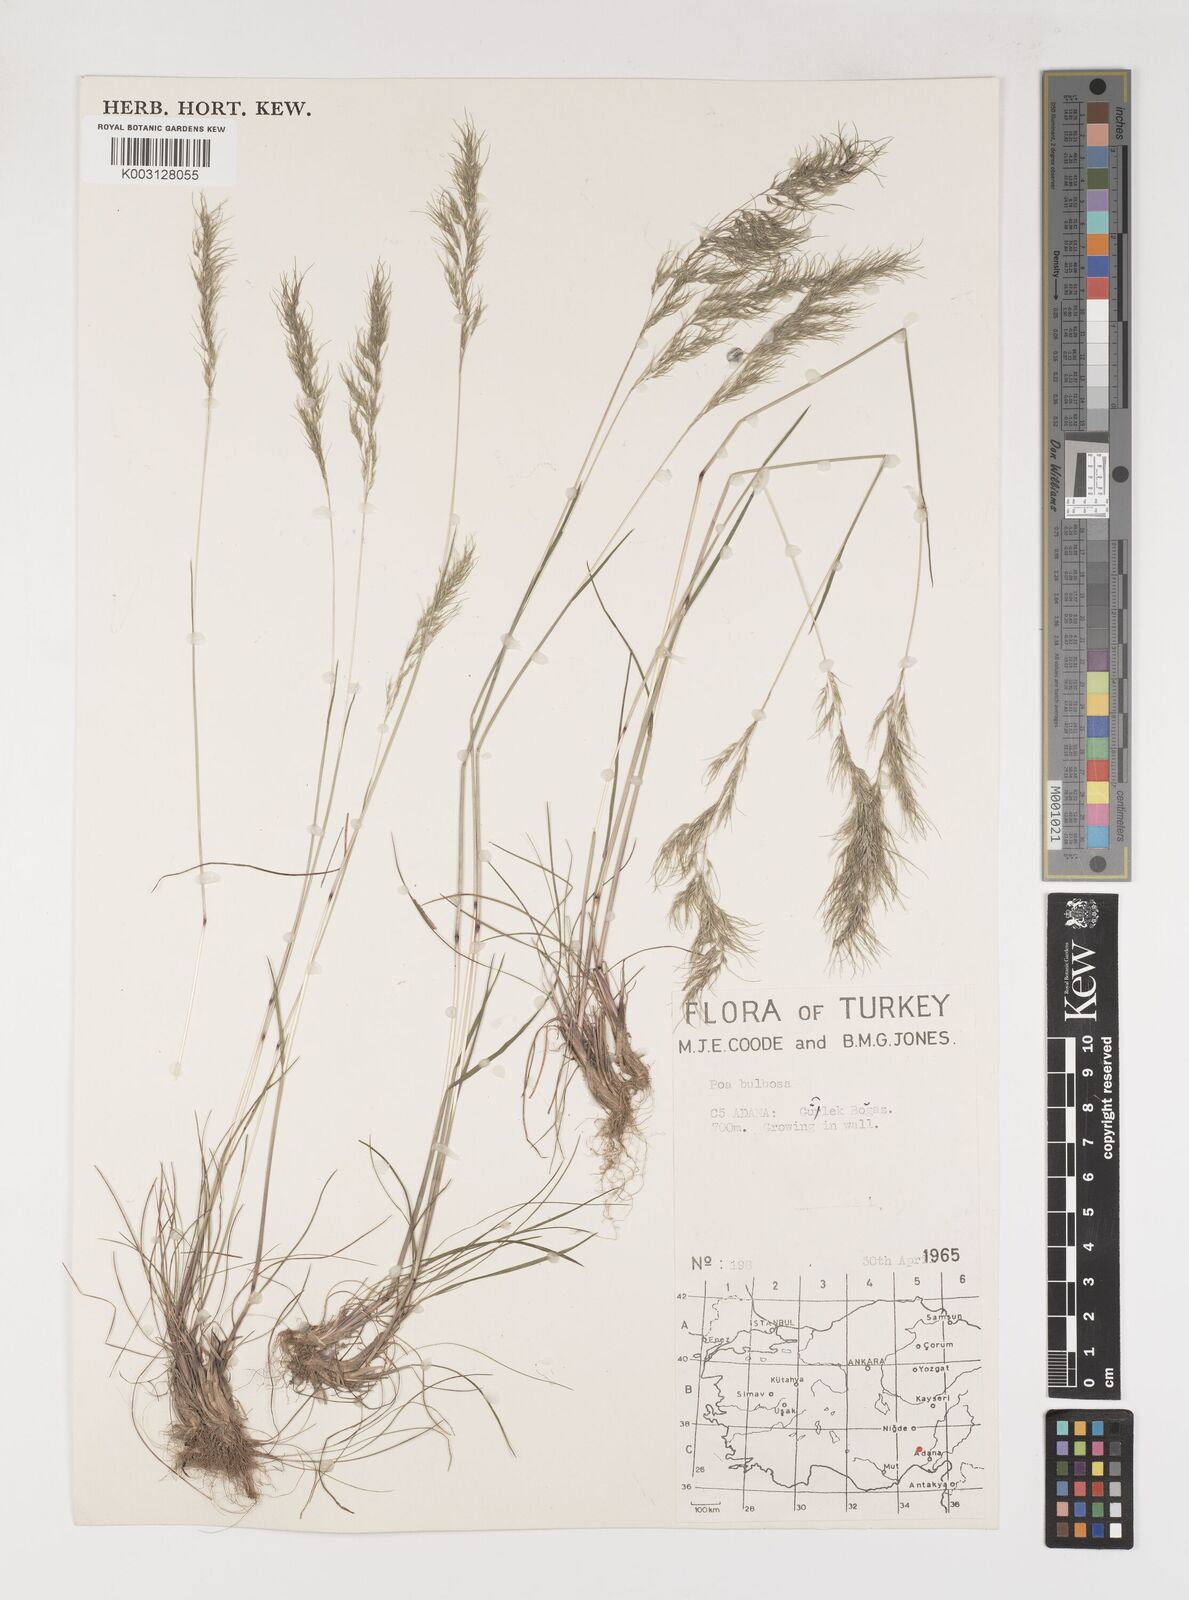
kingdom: Plantae
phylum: Tracheophyta
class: Liliopsida
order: Poales
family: Poaceae
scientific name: Poaceae
